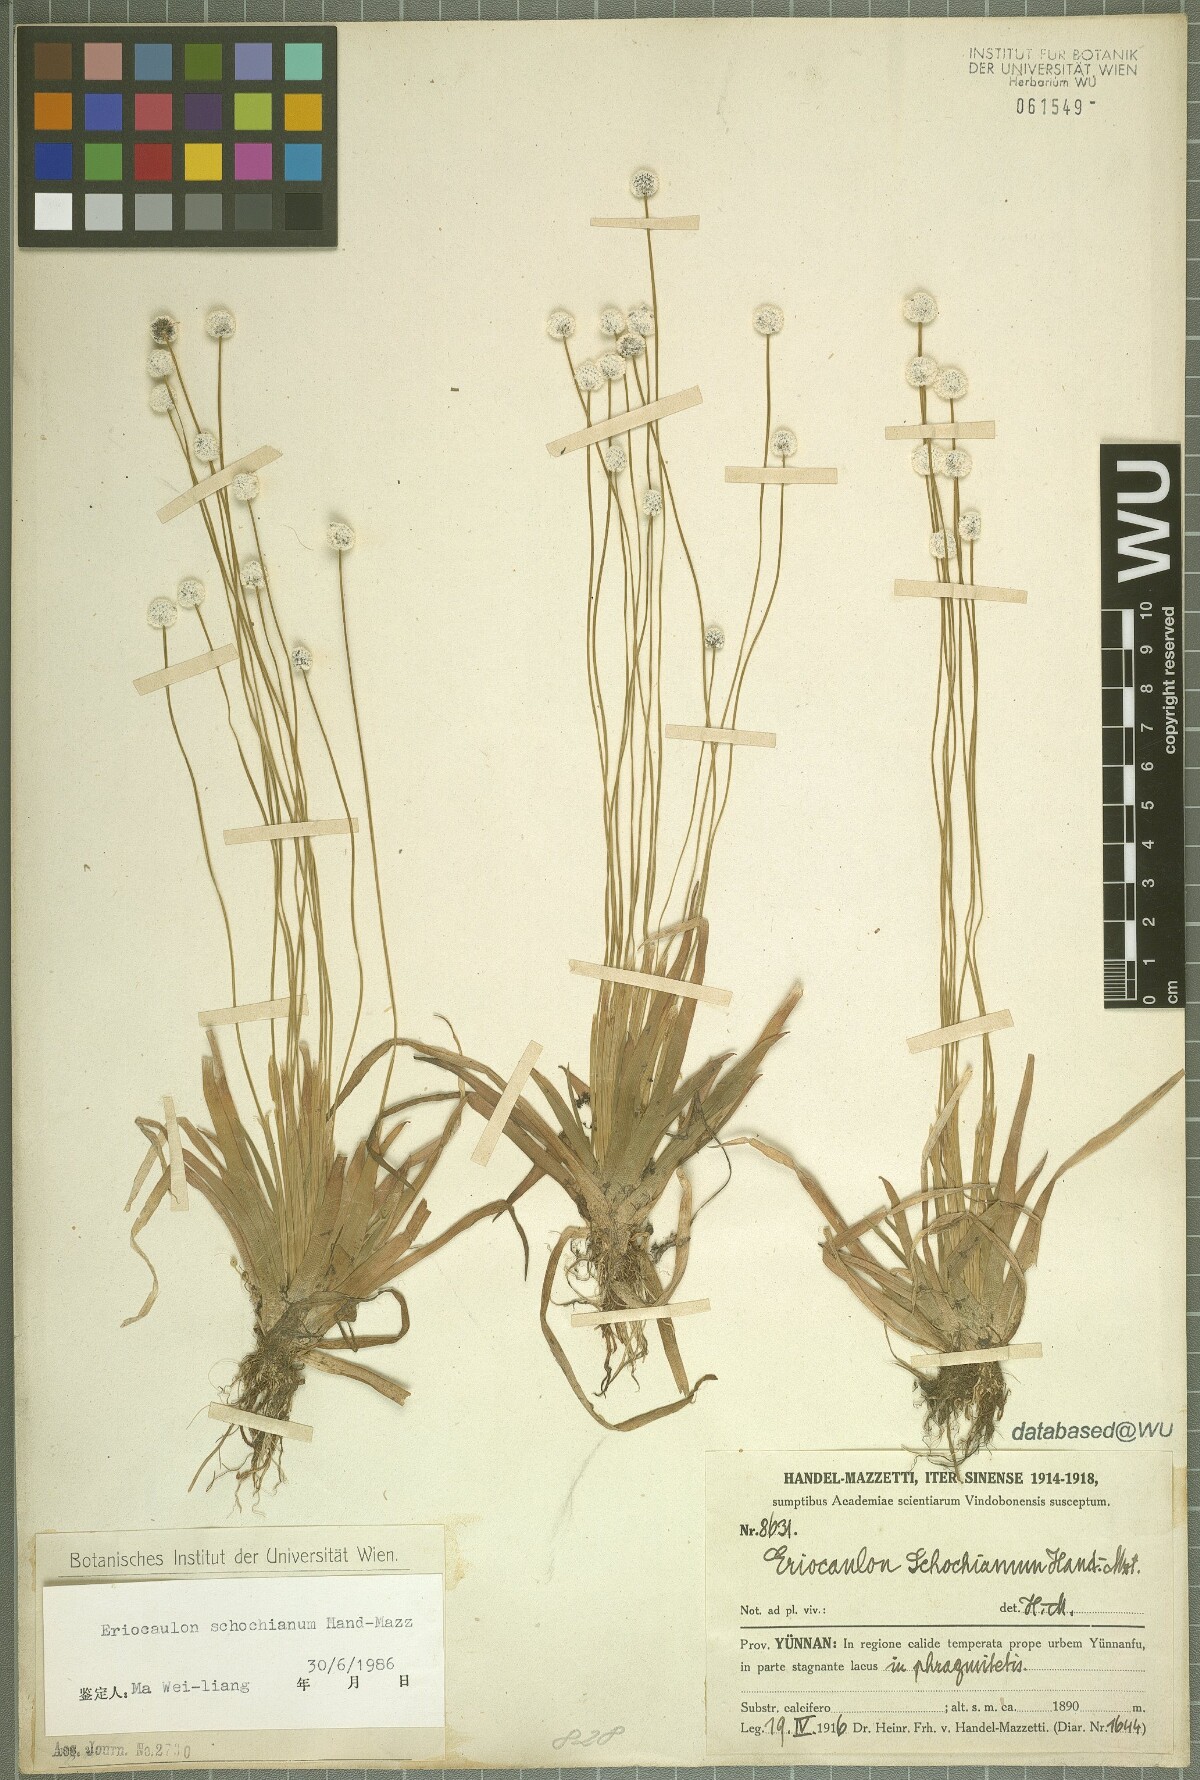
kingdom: Plantae
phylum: Tracheophyta
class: Liliopsida
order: Poales
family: Eriocaulaceae
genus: Eriocaulon
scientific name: Eriocaulon schochianum
